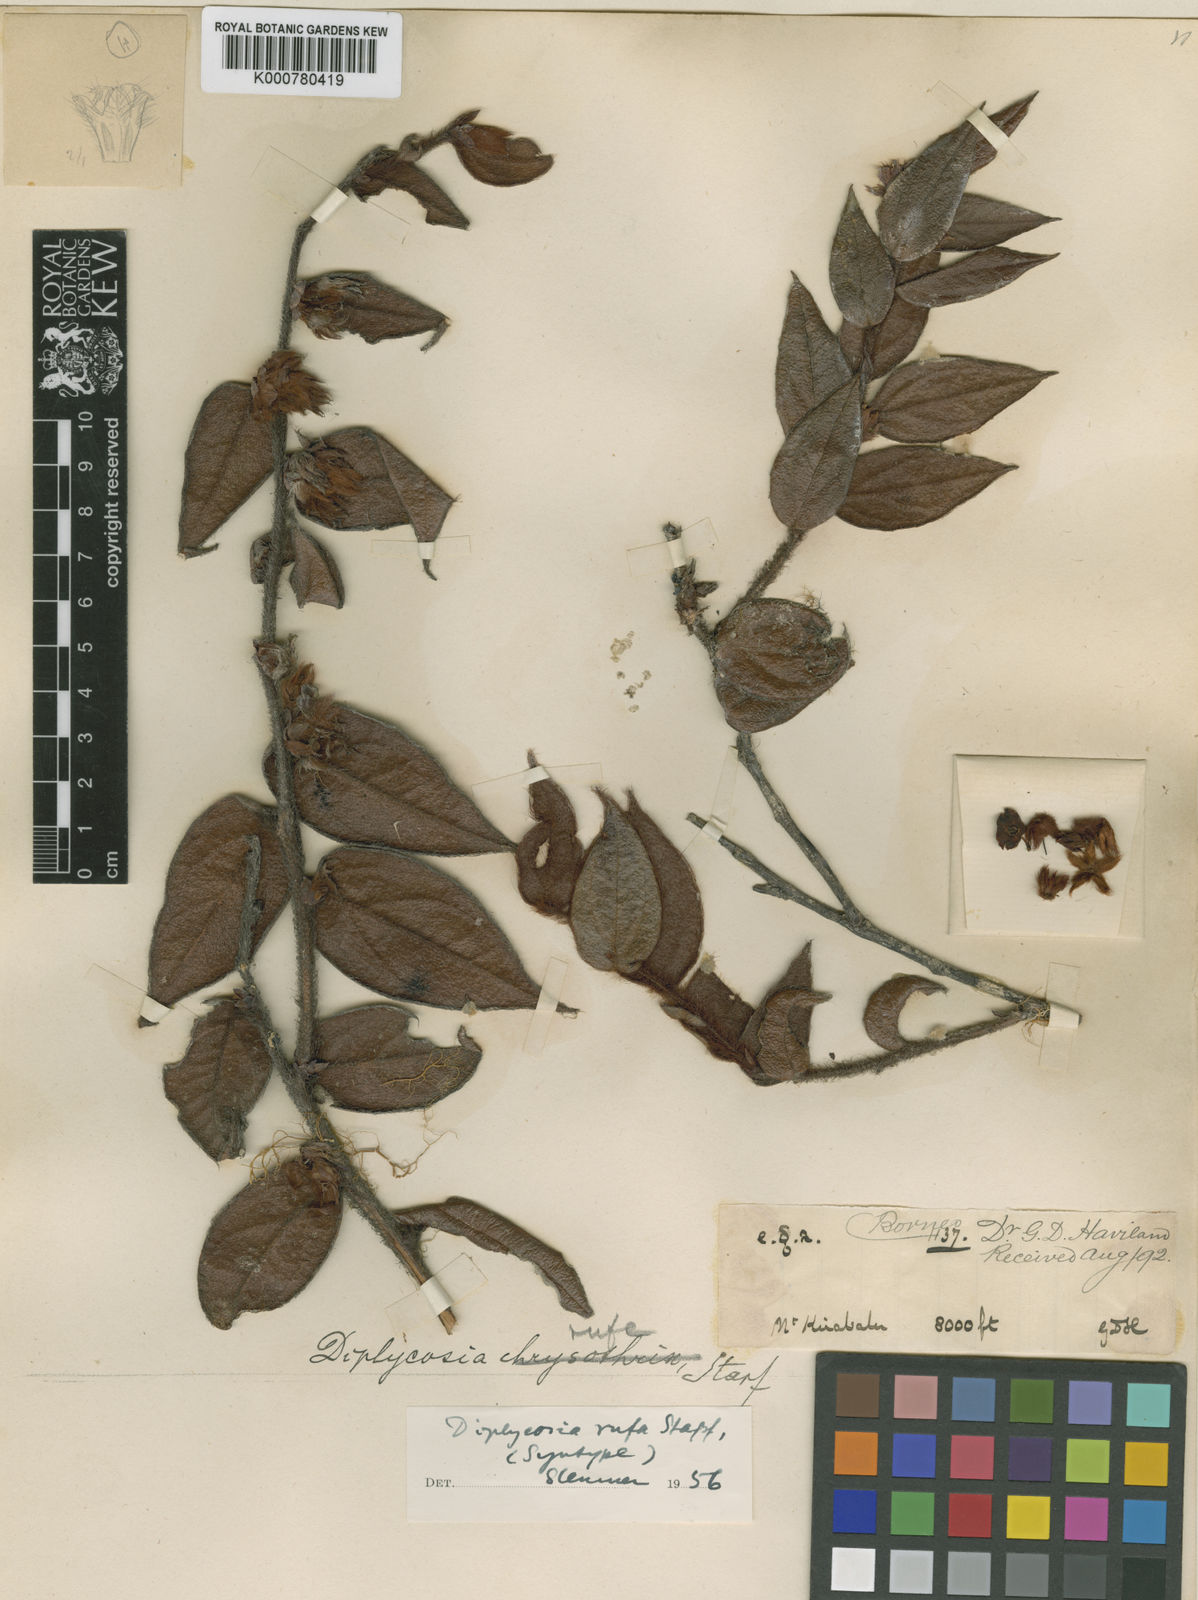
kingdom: Plantae
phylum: Tracheophyta
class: Magnoliopsida
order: Ericales
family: Ericaceae
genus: Gaultheria
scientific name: Gaultheria rufa
